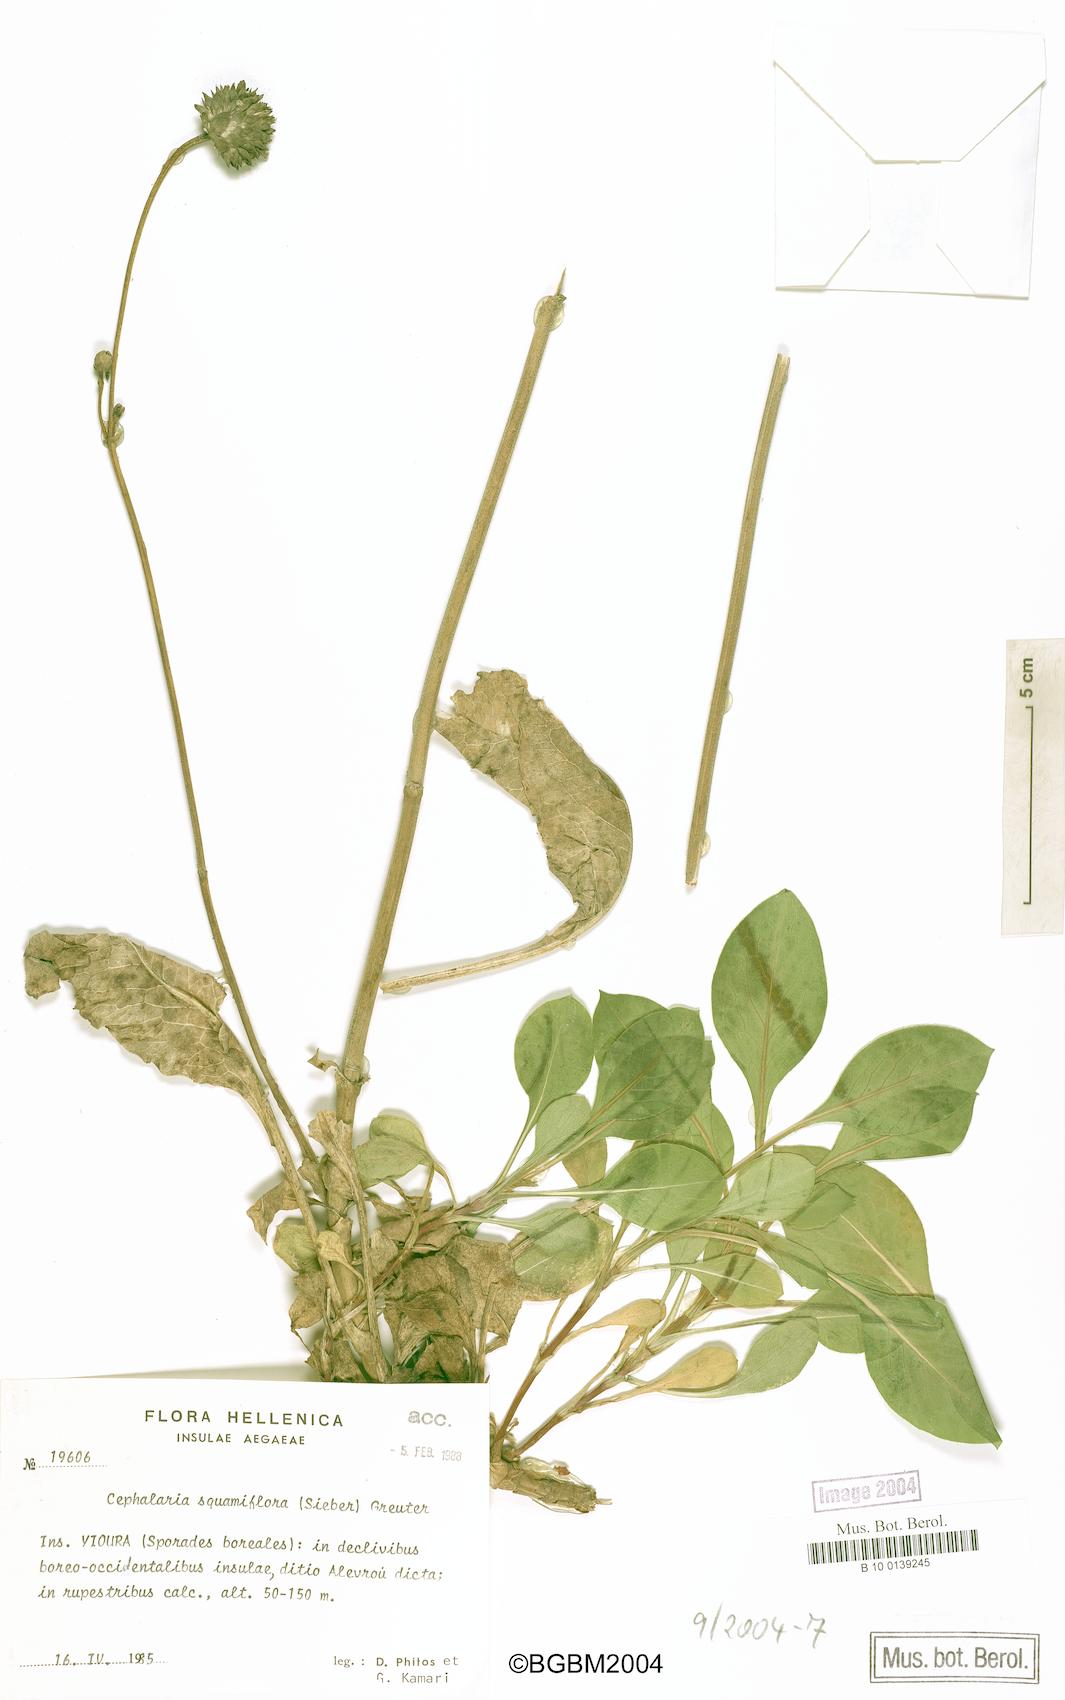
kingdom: Plantae
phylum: Tracheophyta
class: Magnoliopsida
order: Dipsacales
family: Caprifoliaceae
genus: Cephalaria
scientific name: Cephalaria squamiflora
